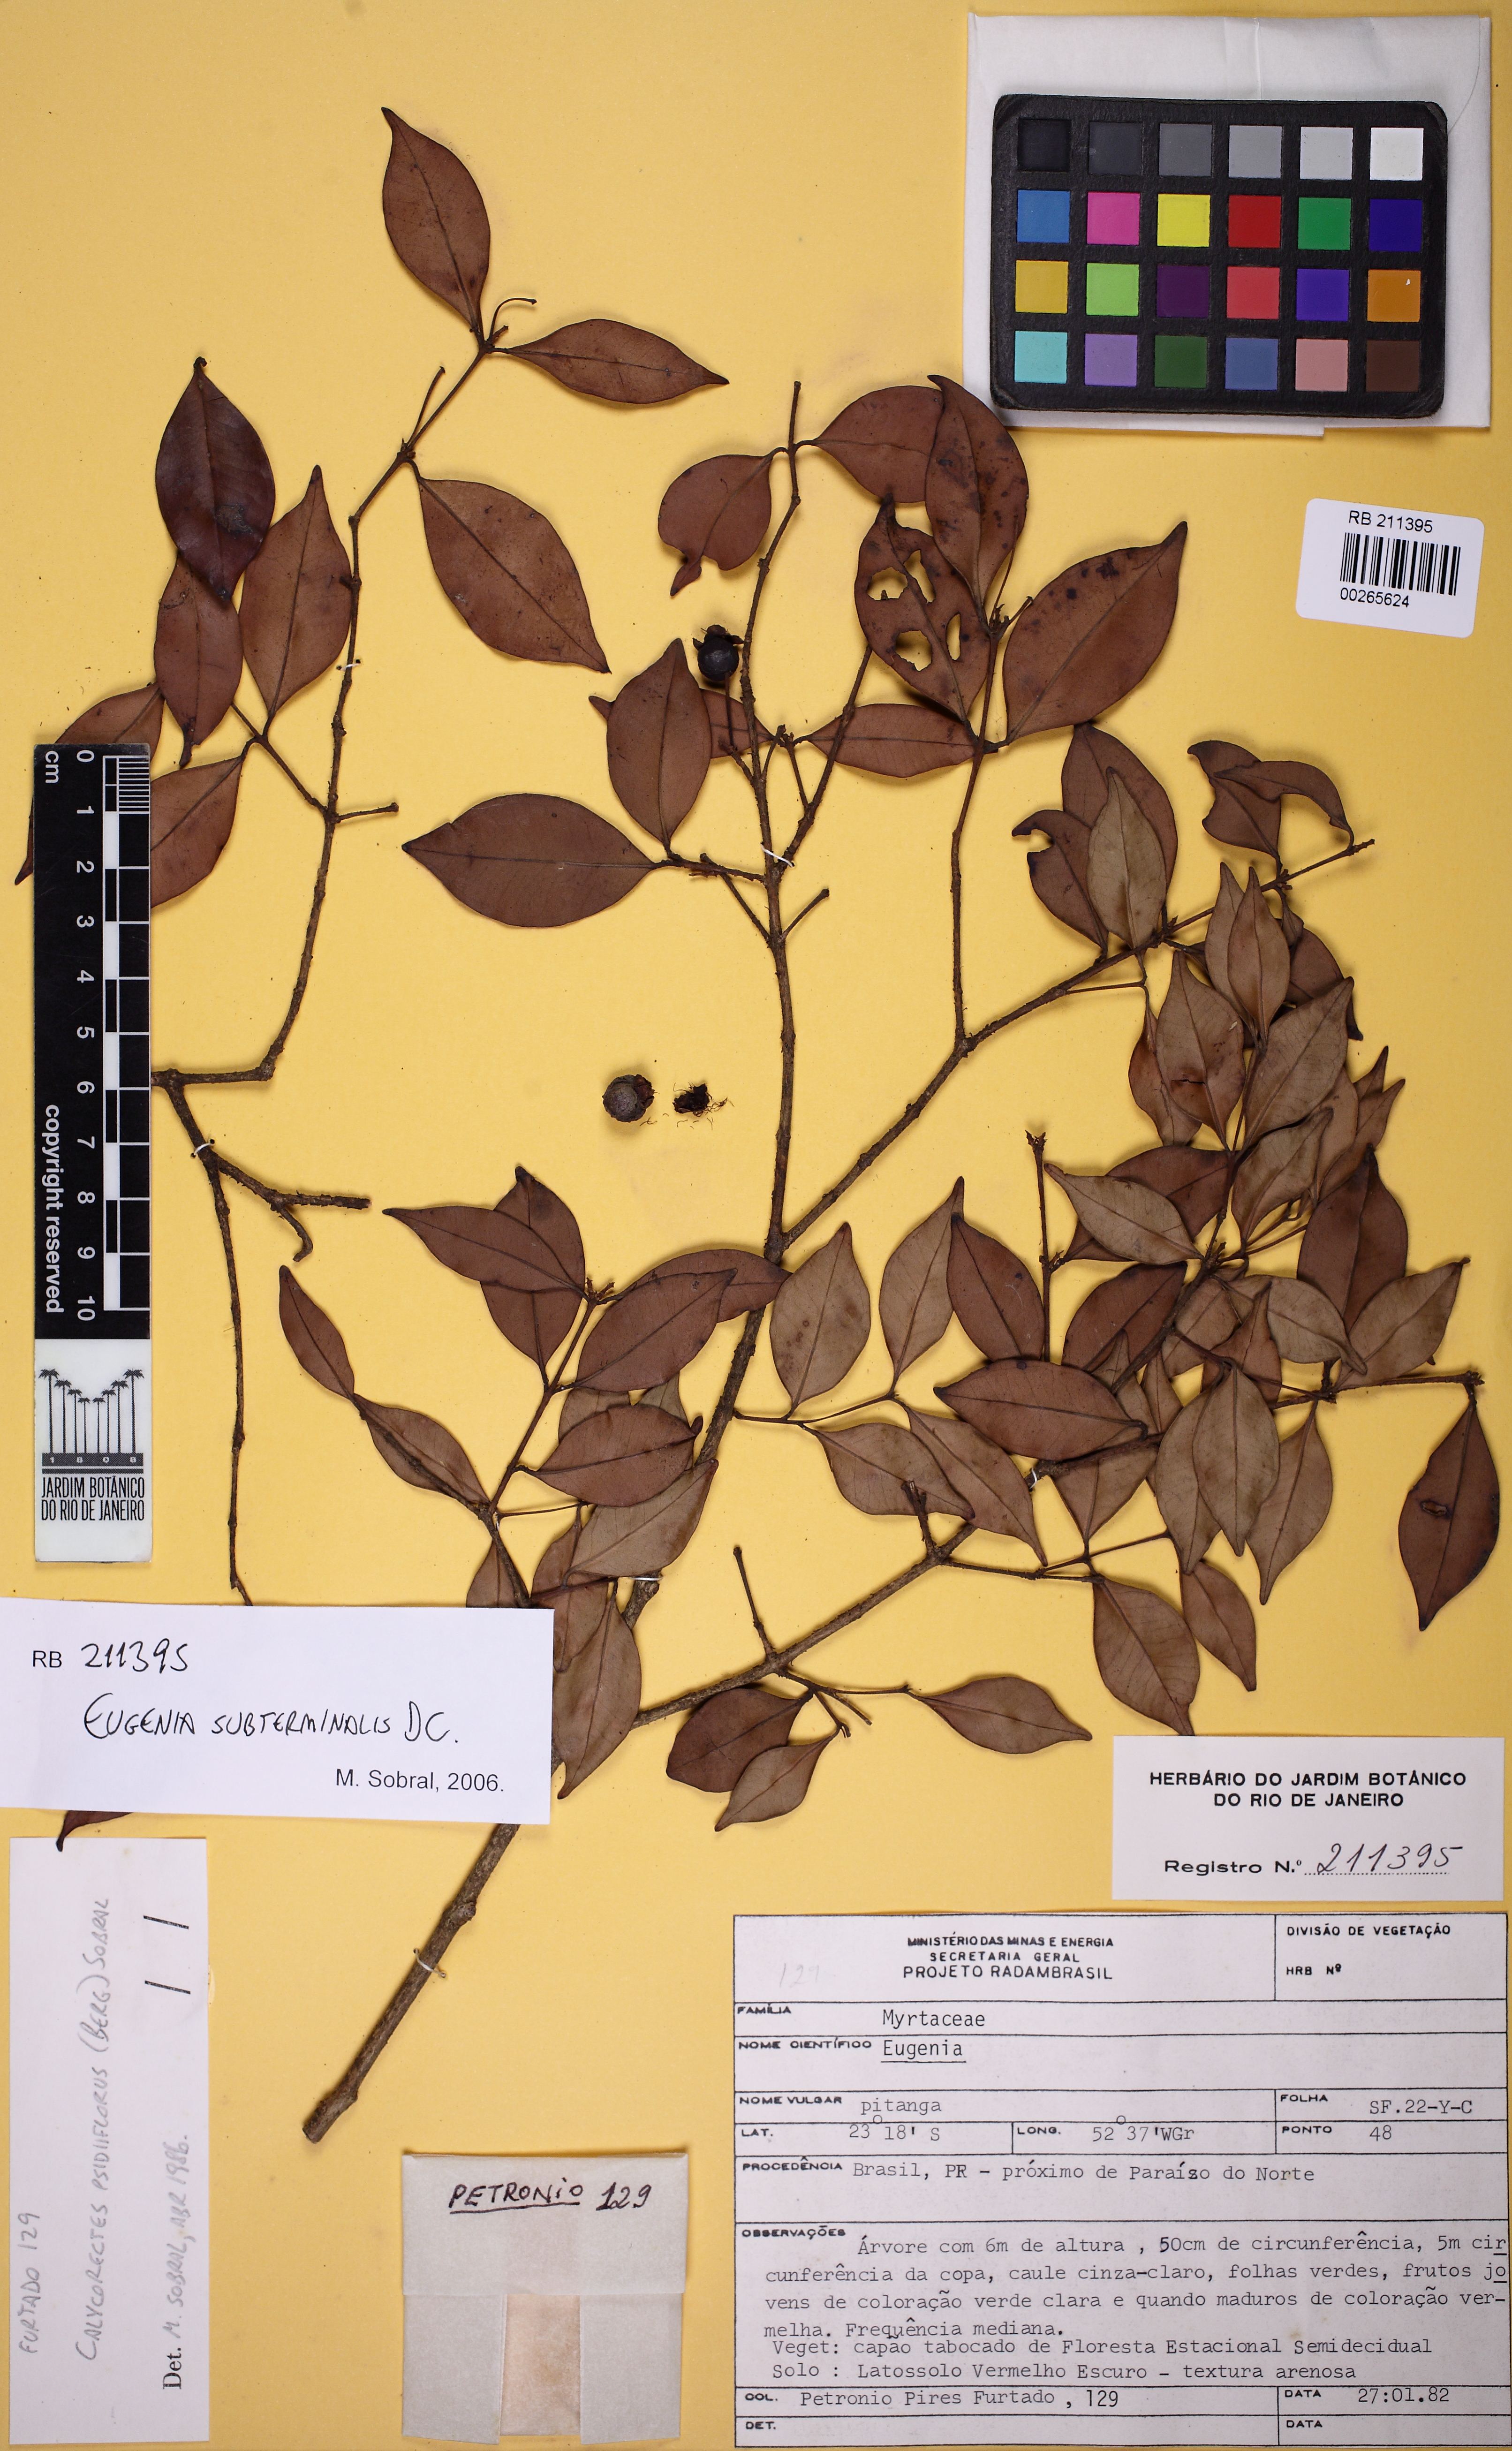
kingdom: Plantae
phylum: Tracheophyta
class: Magnoliopsida
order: Myrtales
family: Myrtaceae
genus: Eugenia
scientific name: Eugenia subterminalis
